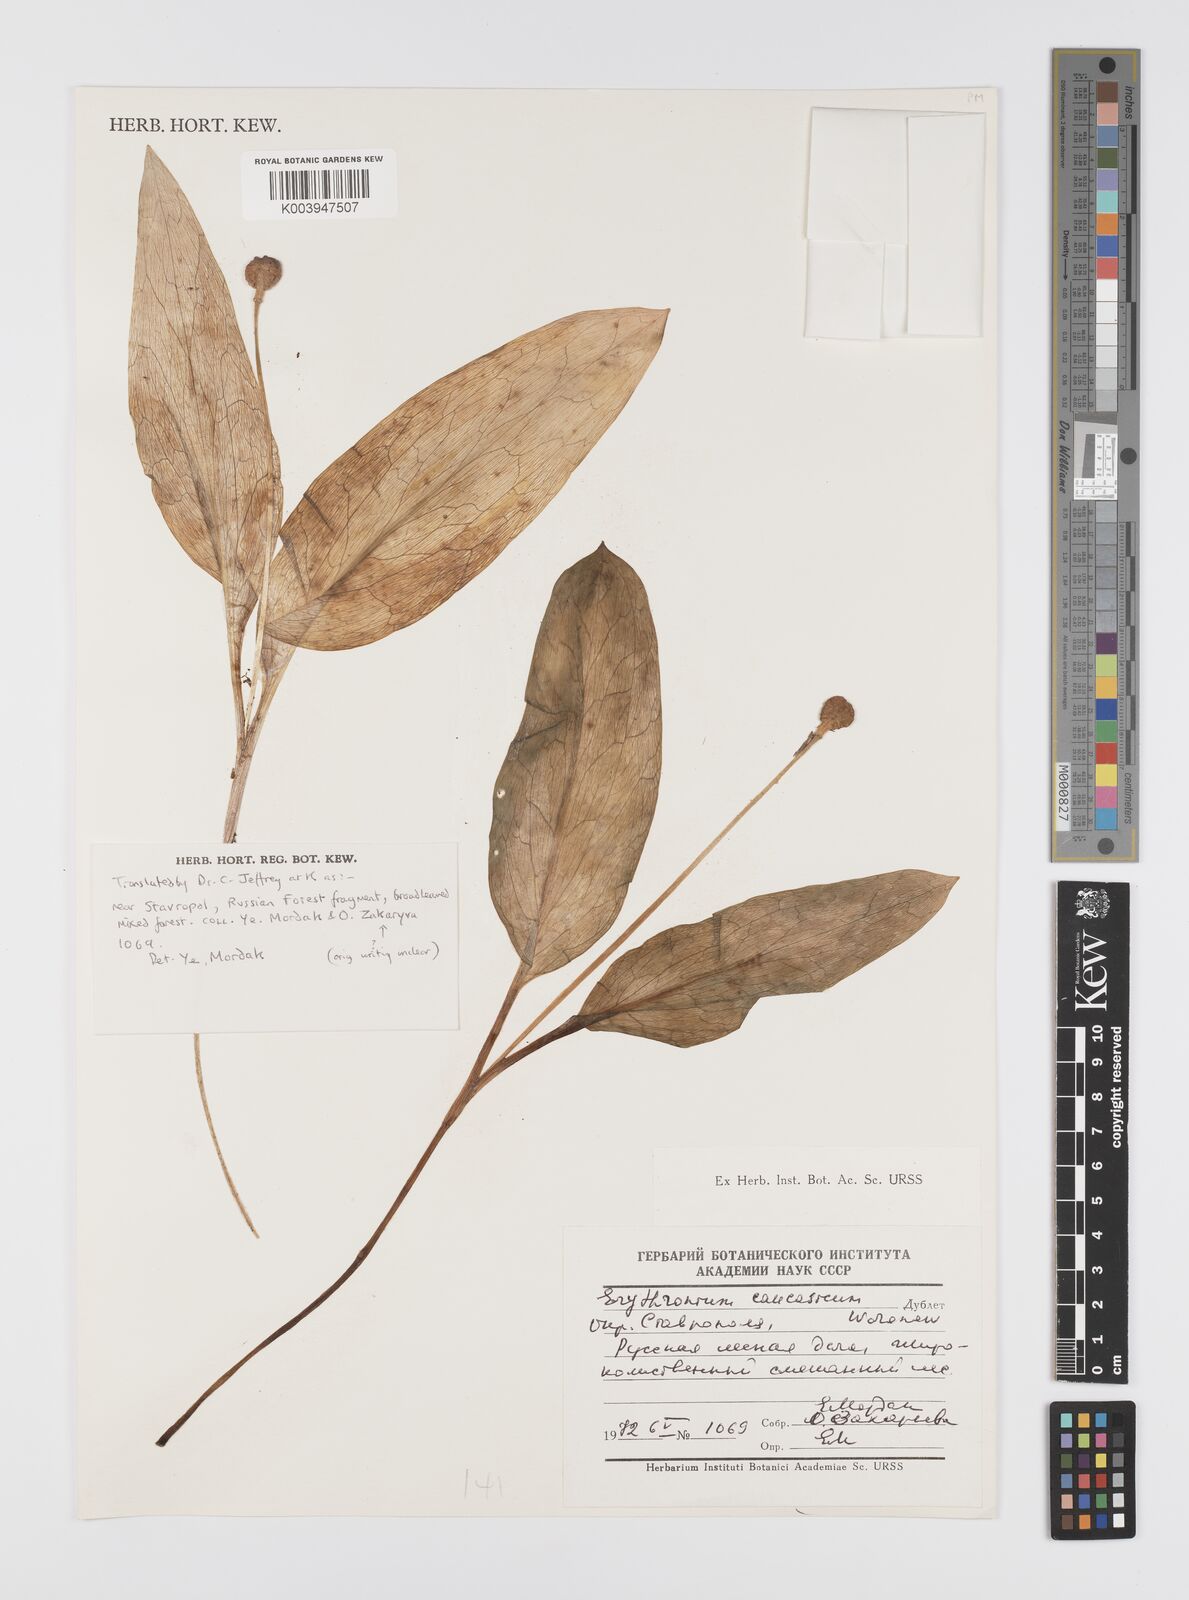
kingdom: Plantae
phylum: Tracheophyta
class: Liliopsida
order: Liliales
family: Liliaceae
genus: Erythronium
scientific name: Erythronium
